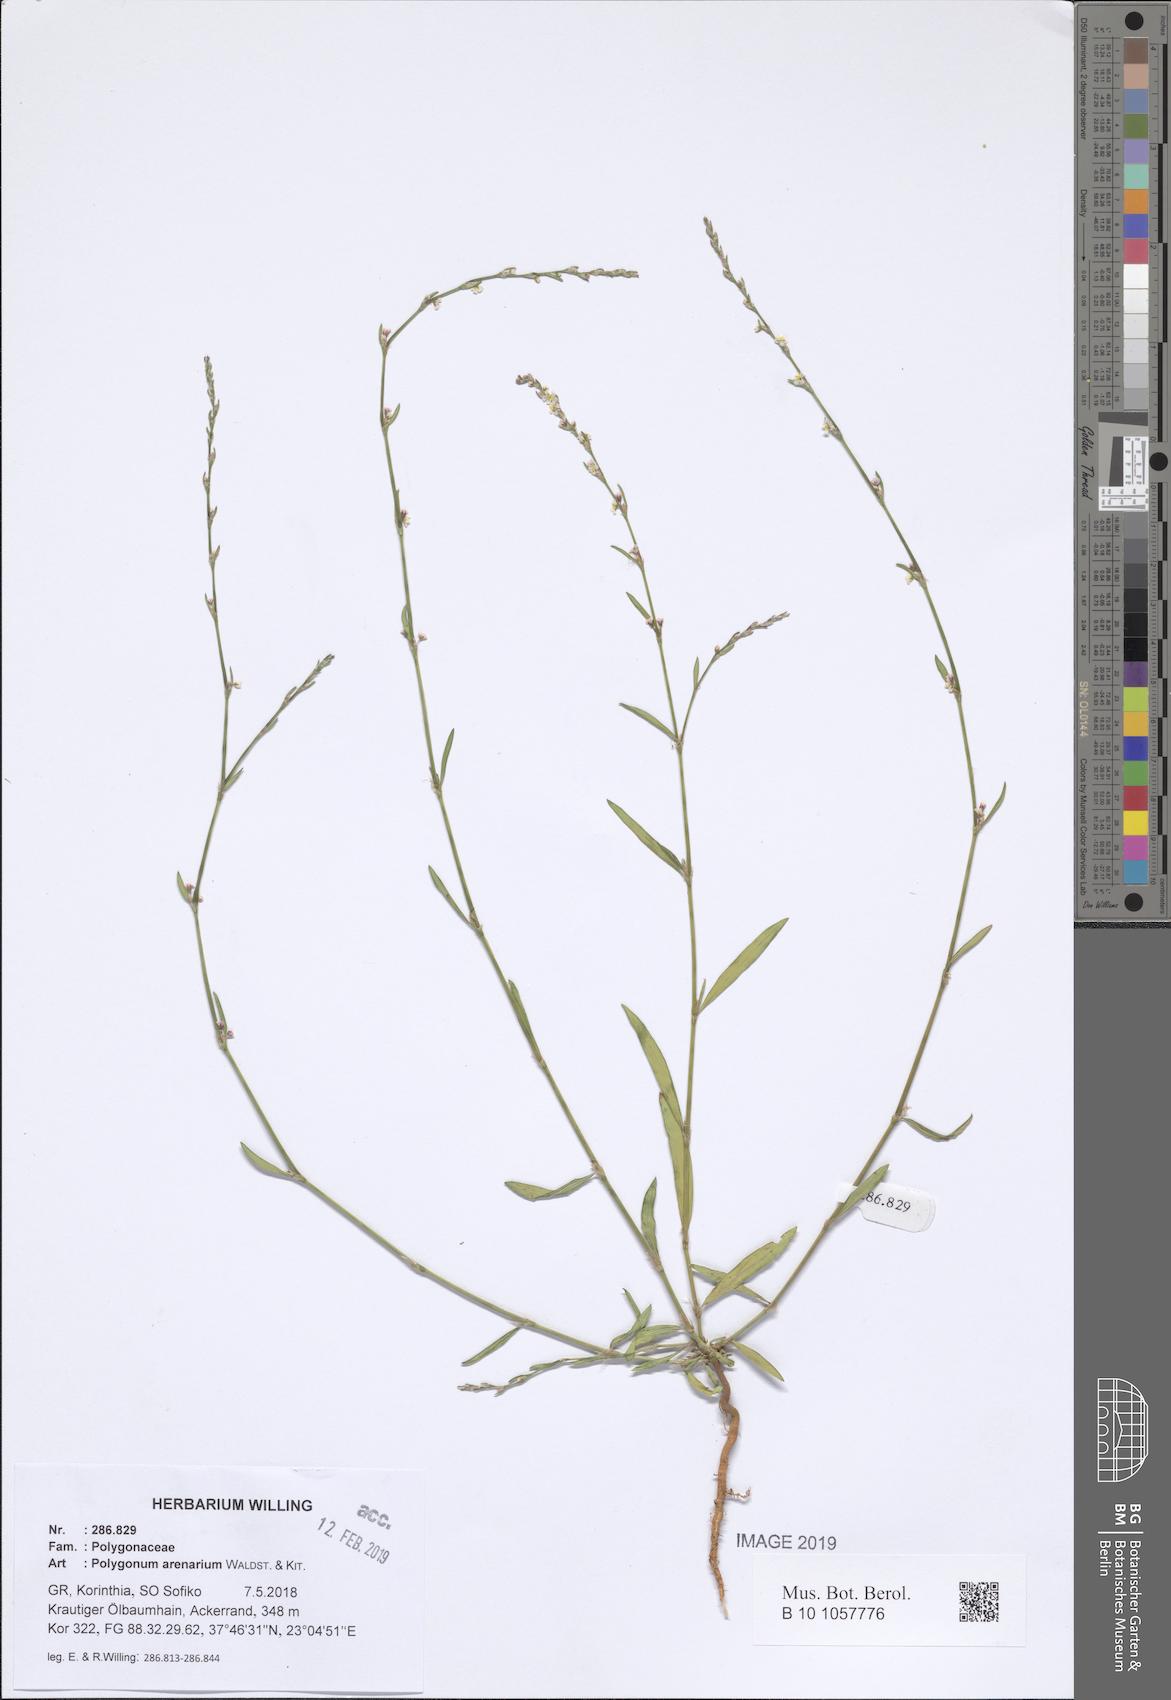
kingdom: Plantae
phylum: Tracheophyta
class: Magnoliopsida
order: Caryophyllales
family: Polygonaceae
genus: Polygonum
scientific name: Polygonum arenarium
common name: Lesser red-knotgrass
